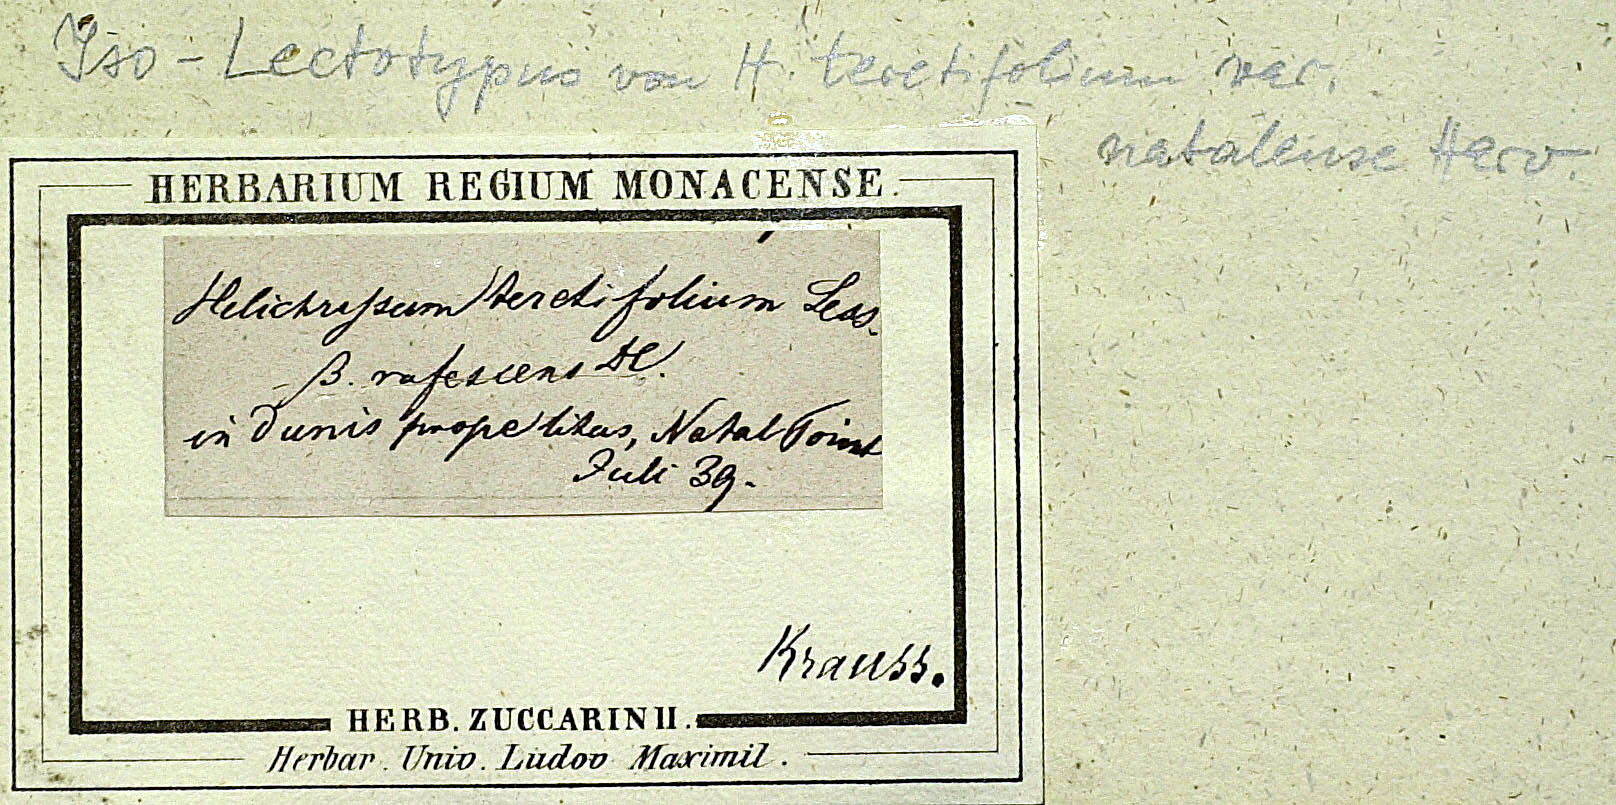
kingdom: Plantae
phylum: Tracheophyta
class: Magnoliopsida
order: Asterales
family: Asteraceae
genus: Helichrysum
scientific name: Helichrysum teretifolium
